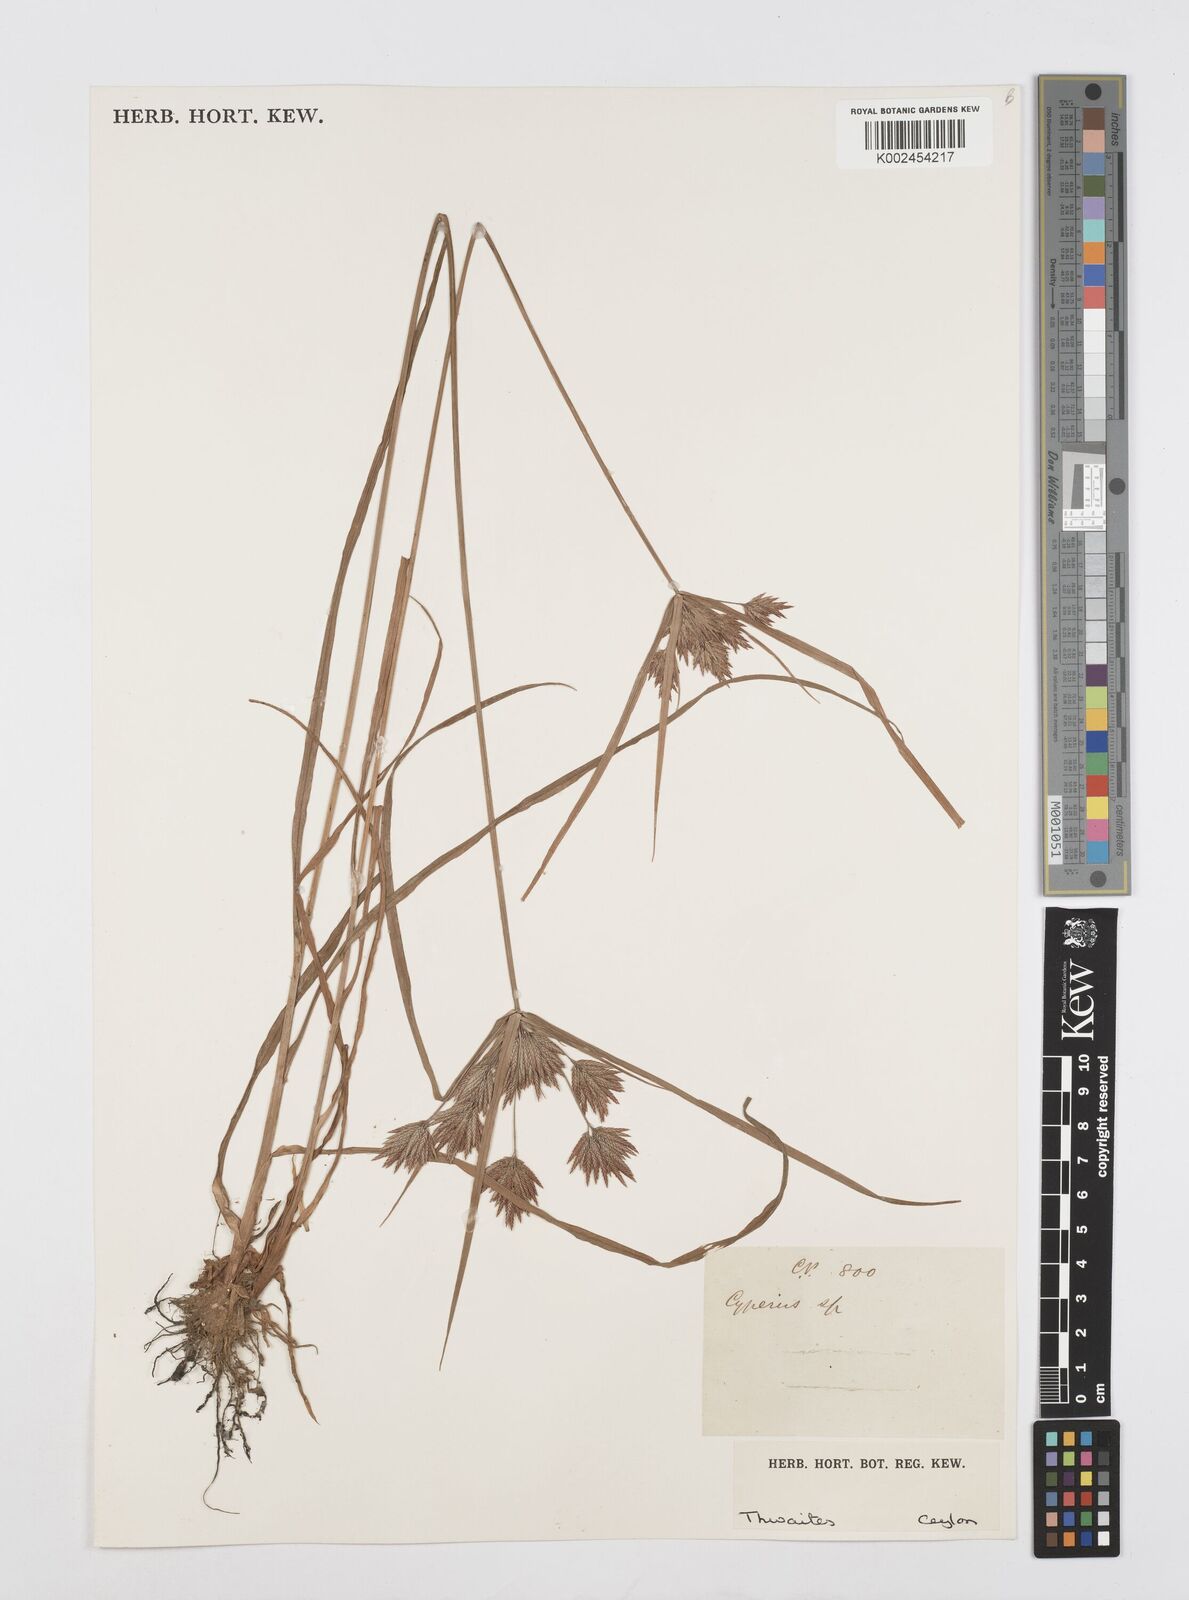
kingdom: Plantae
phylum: Tracheophyta
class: Liliopsida
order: Poales
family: Cyperaceae
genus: Cyperus
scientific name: Cyperus polystachyos
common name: Bunchy flat sedge
